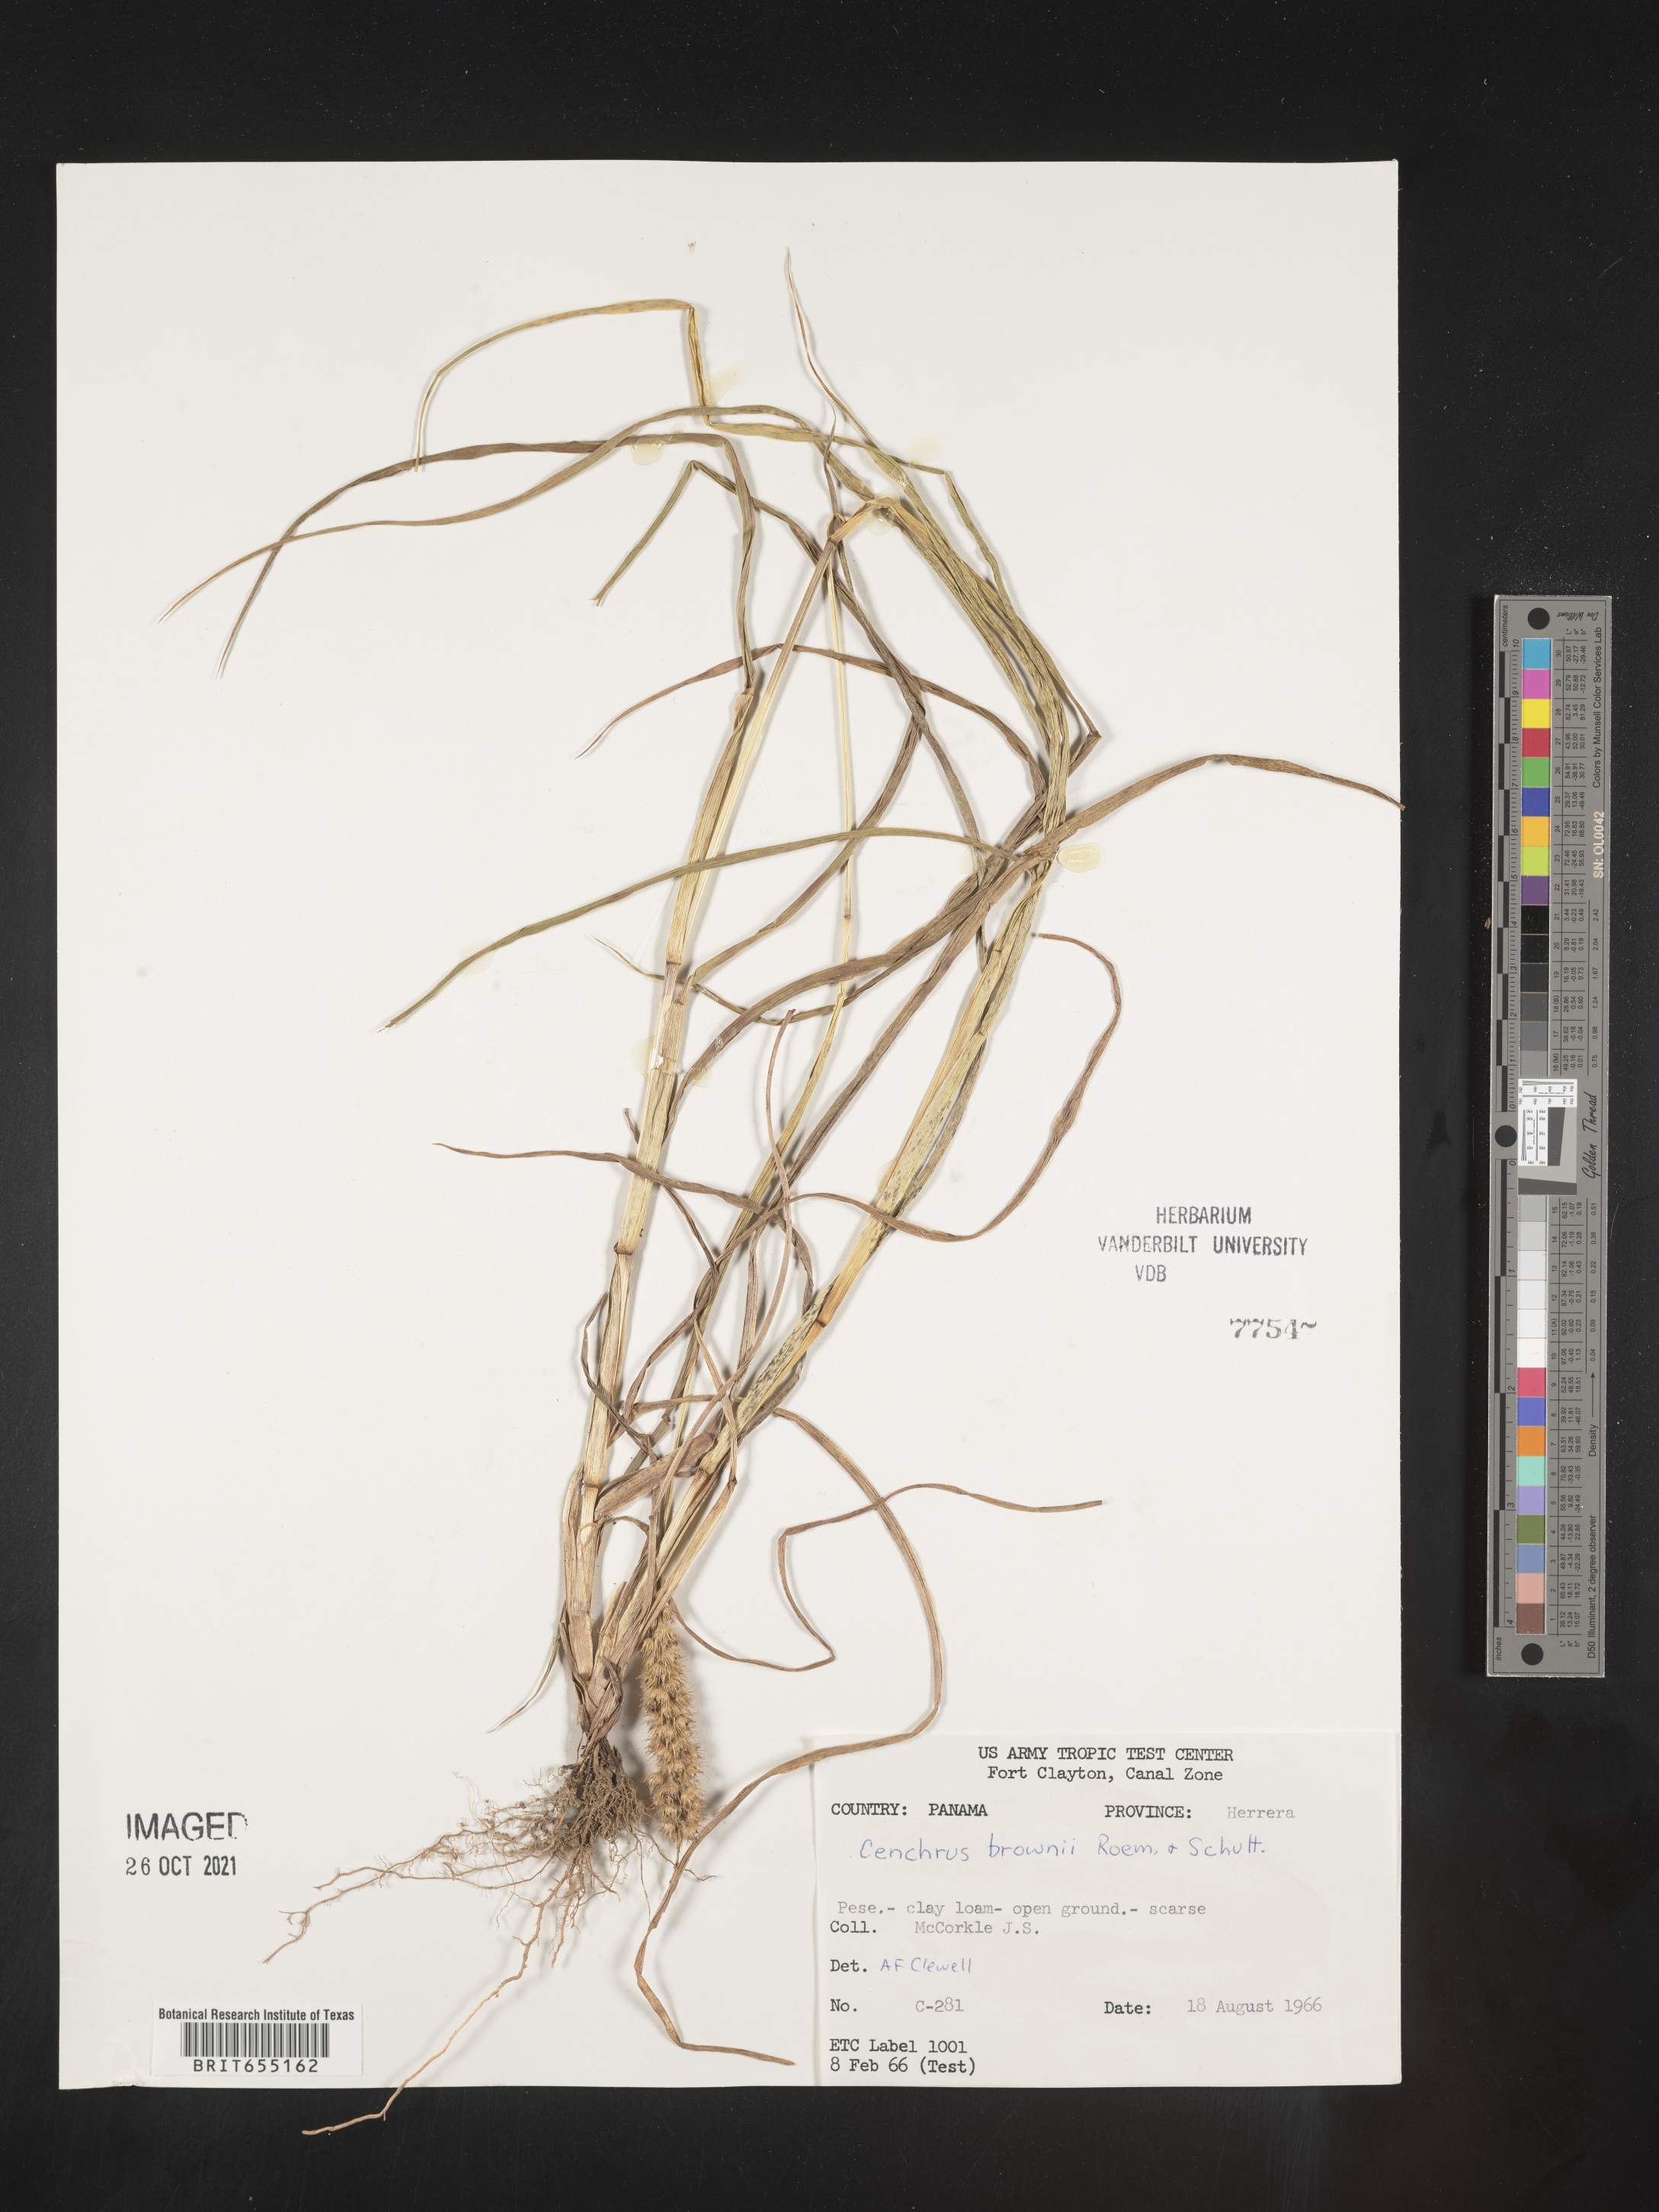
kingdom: Plantae
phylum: Tracheophyta
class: Liliopsida
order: Poales
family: Poaceae
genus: Cenchrus
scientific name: Cenchrus
